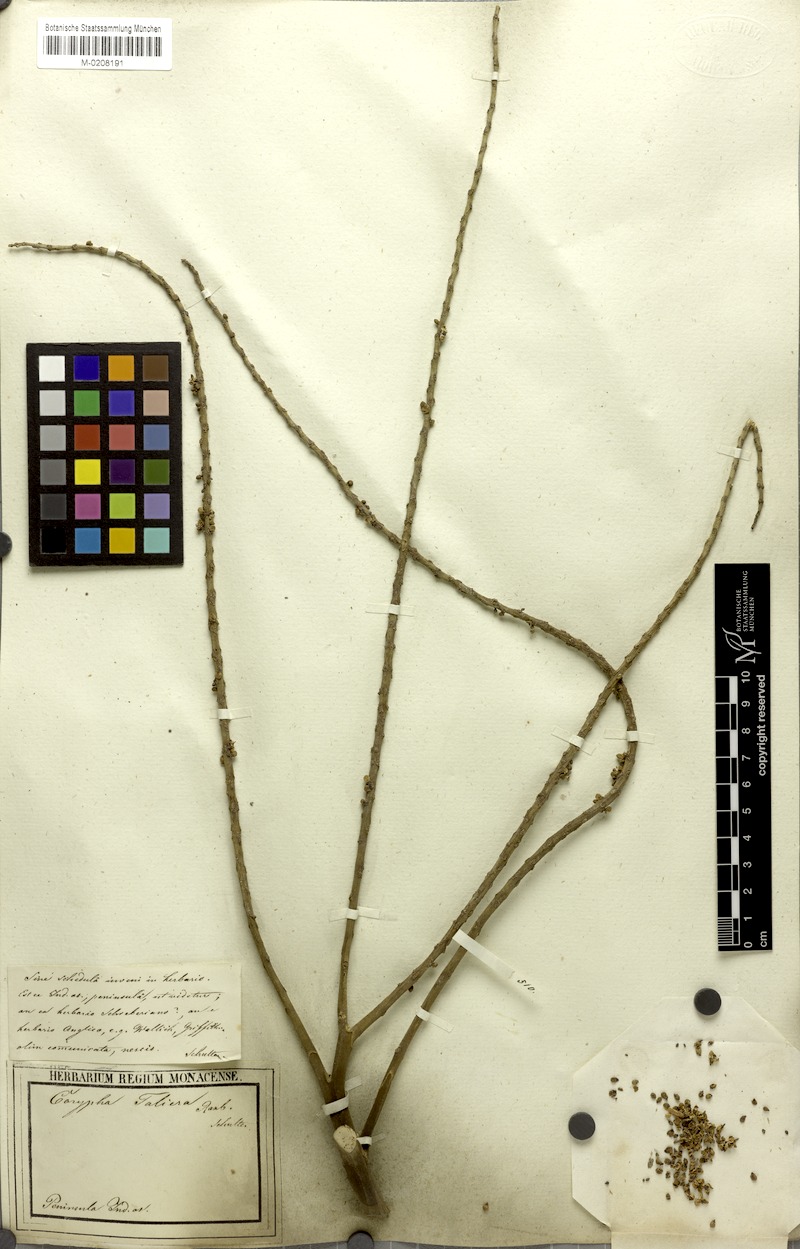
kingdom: Plantae
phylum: Tracheophyta
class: Liliopsida
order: Arecales
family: Arecaceae
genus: Corypha
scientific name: Corypha taliera
